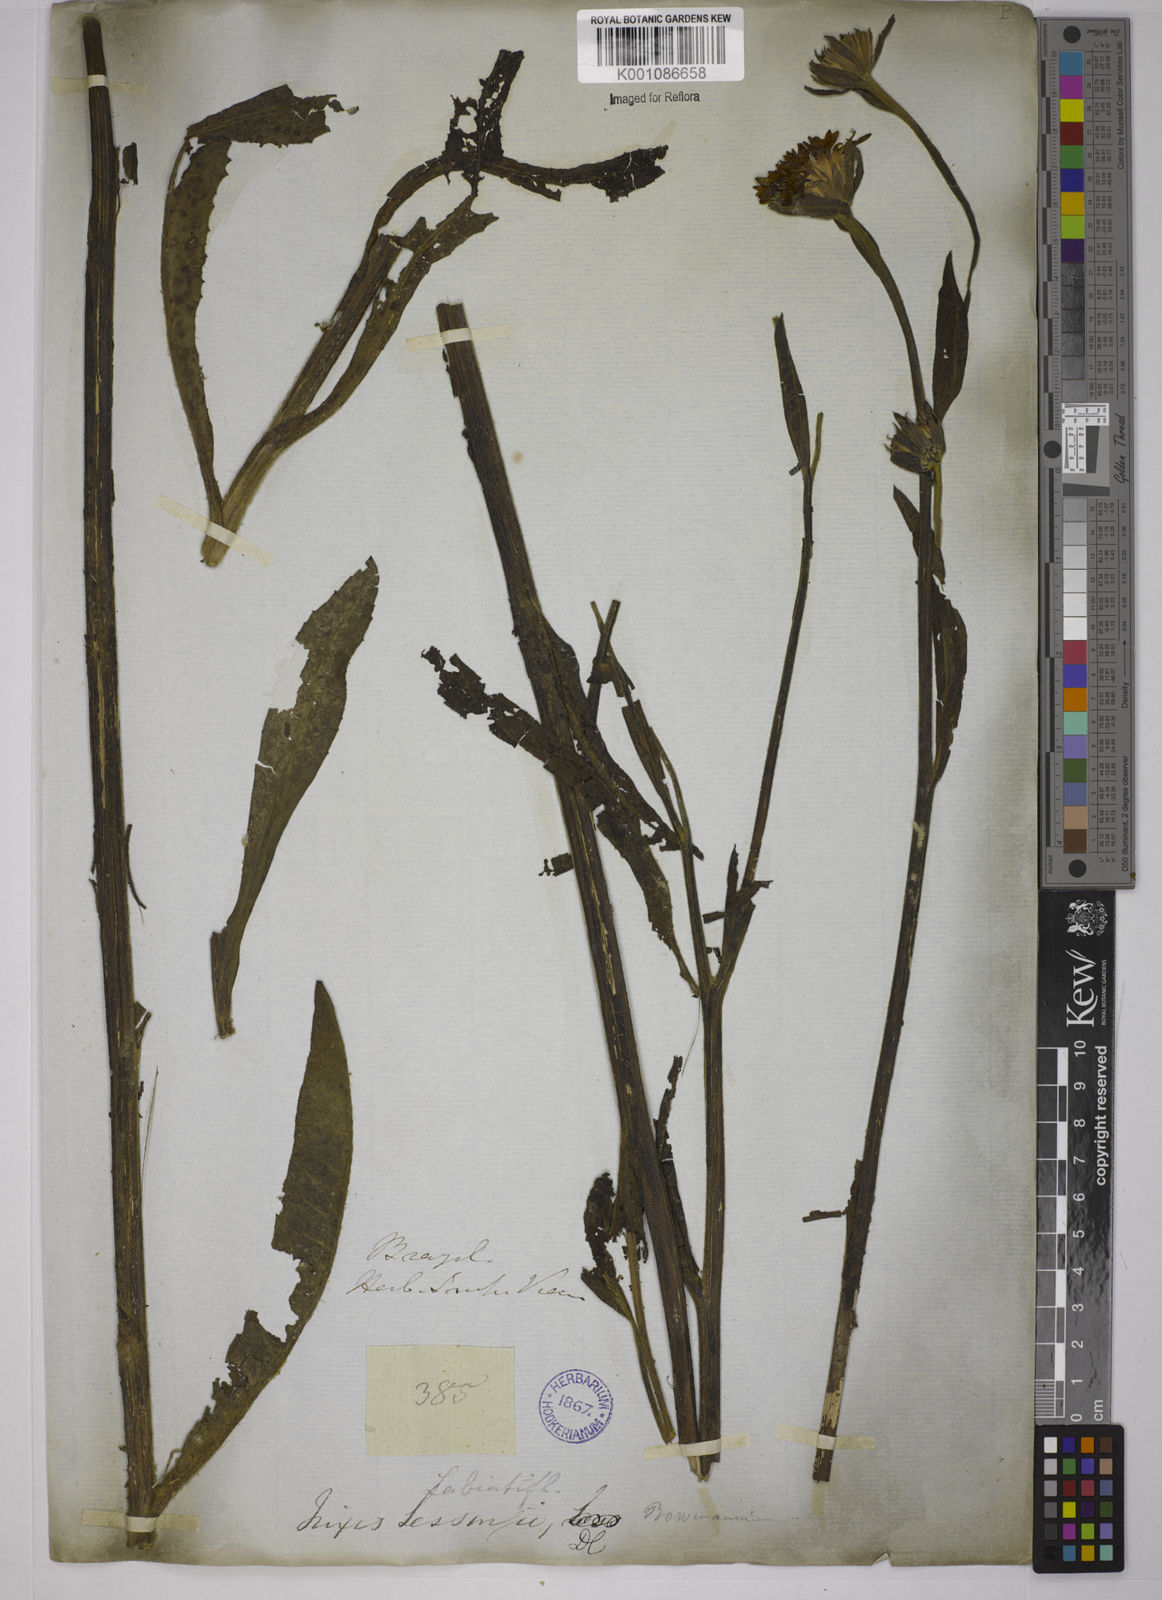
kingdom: Plantae
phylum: Tracheophyta
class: Magnoliopsida
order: Asterales
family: Asteraceae
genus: Trixis
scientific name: Trixis lessingii
